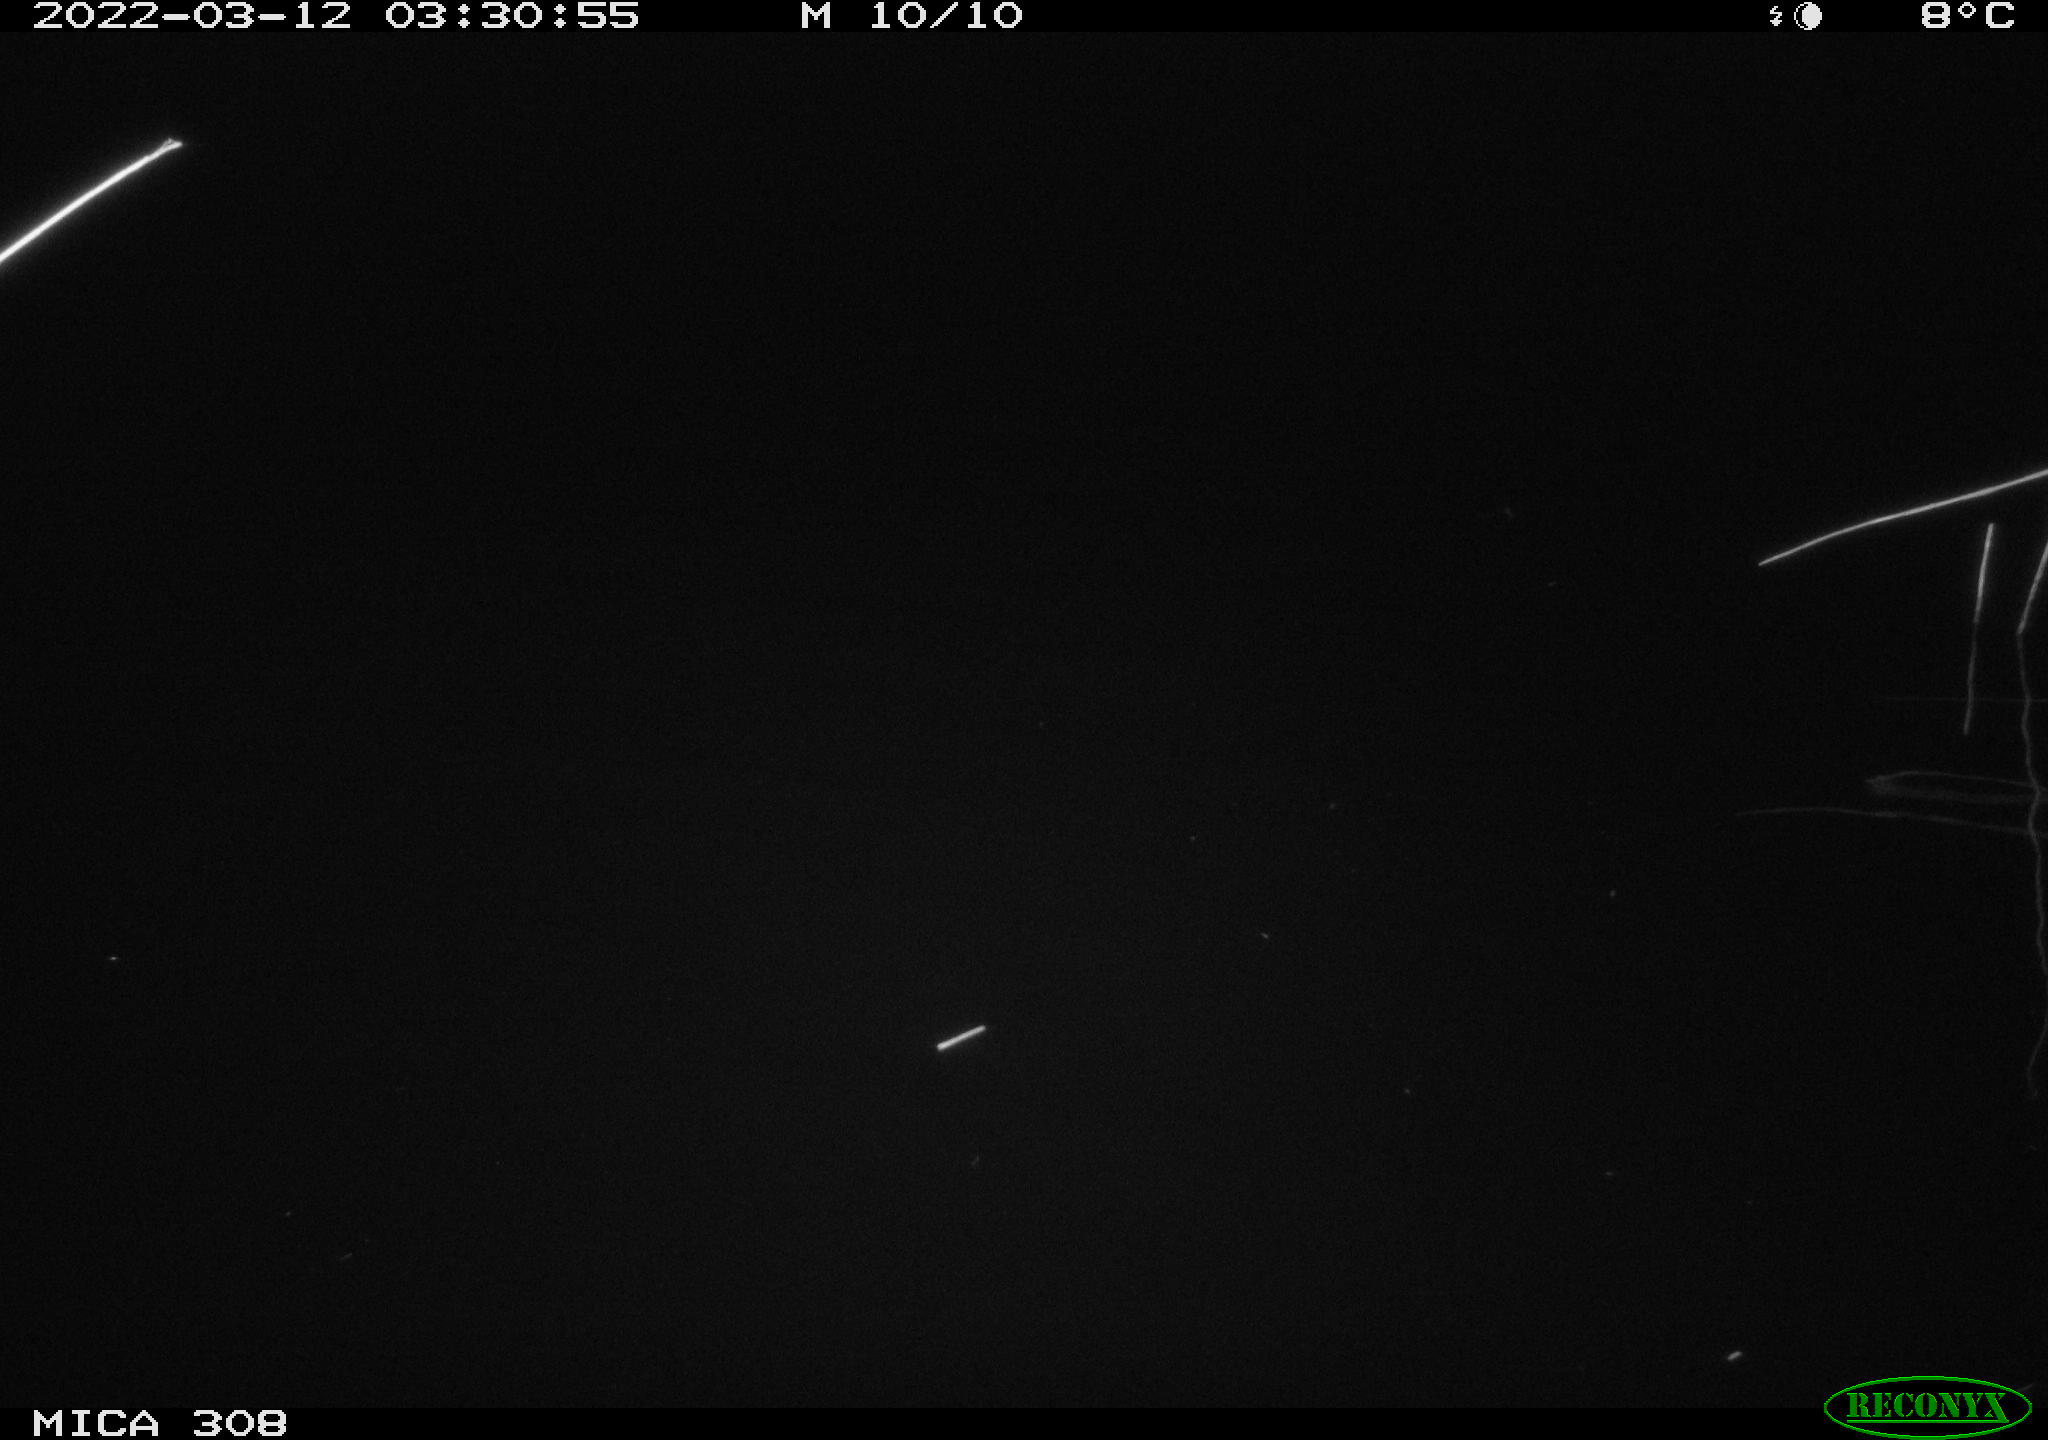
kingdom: Animalia
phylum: Chordata
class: Aves
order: Anseriformes
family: Anatidae
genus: Anas
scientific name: Anas platyrhynchos
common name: Mallard
